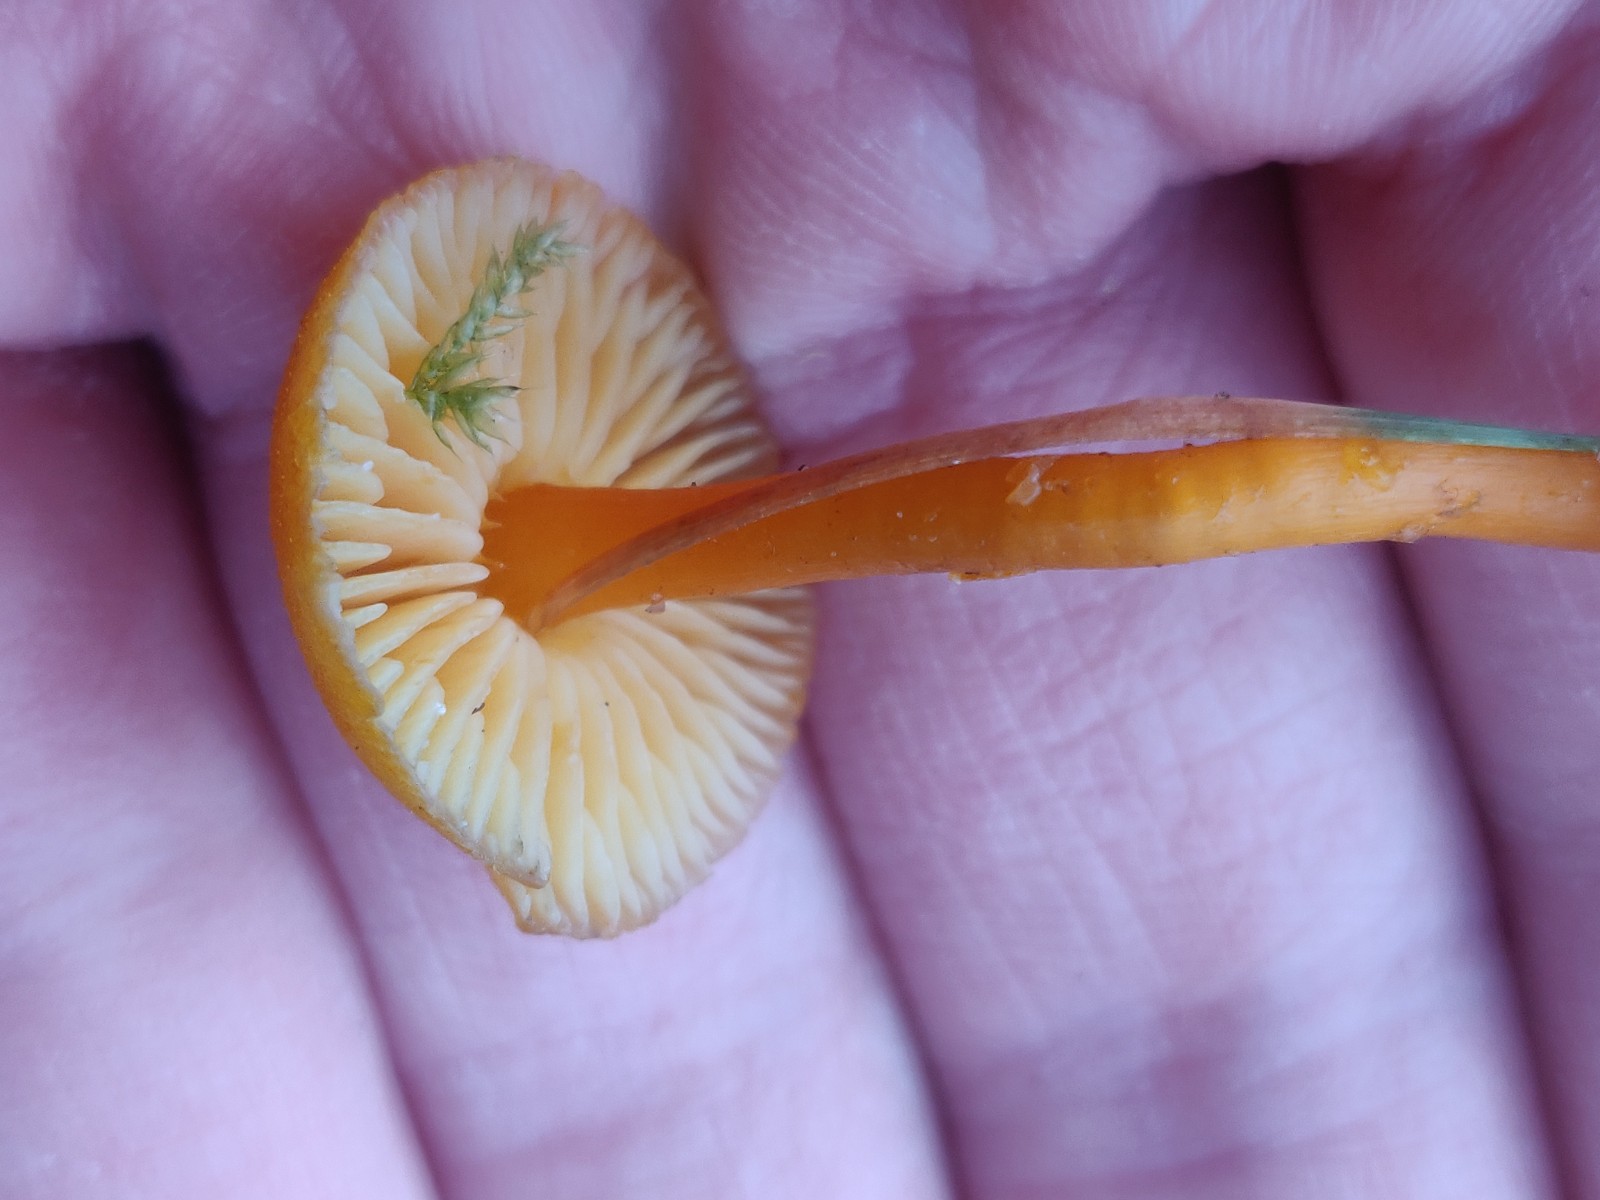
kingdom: Fungi
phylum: Basidiomycota
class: Agaricomycetes
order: Agaricales
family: Hygrophoraceae
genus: Hygrocybe
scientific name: Hygrocybe miniata
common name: mønje-vokshat
